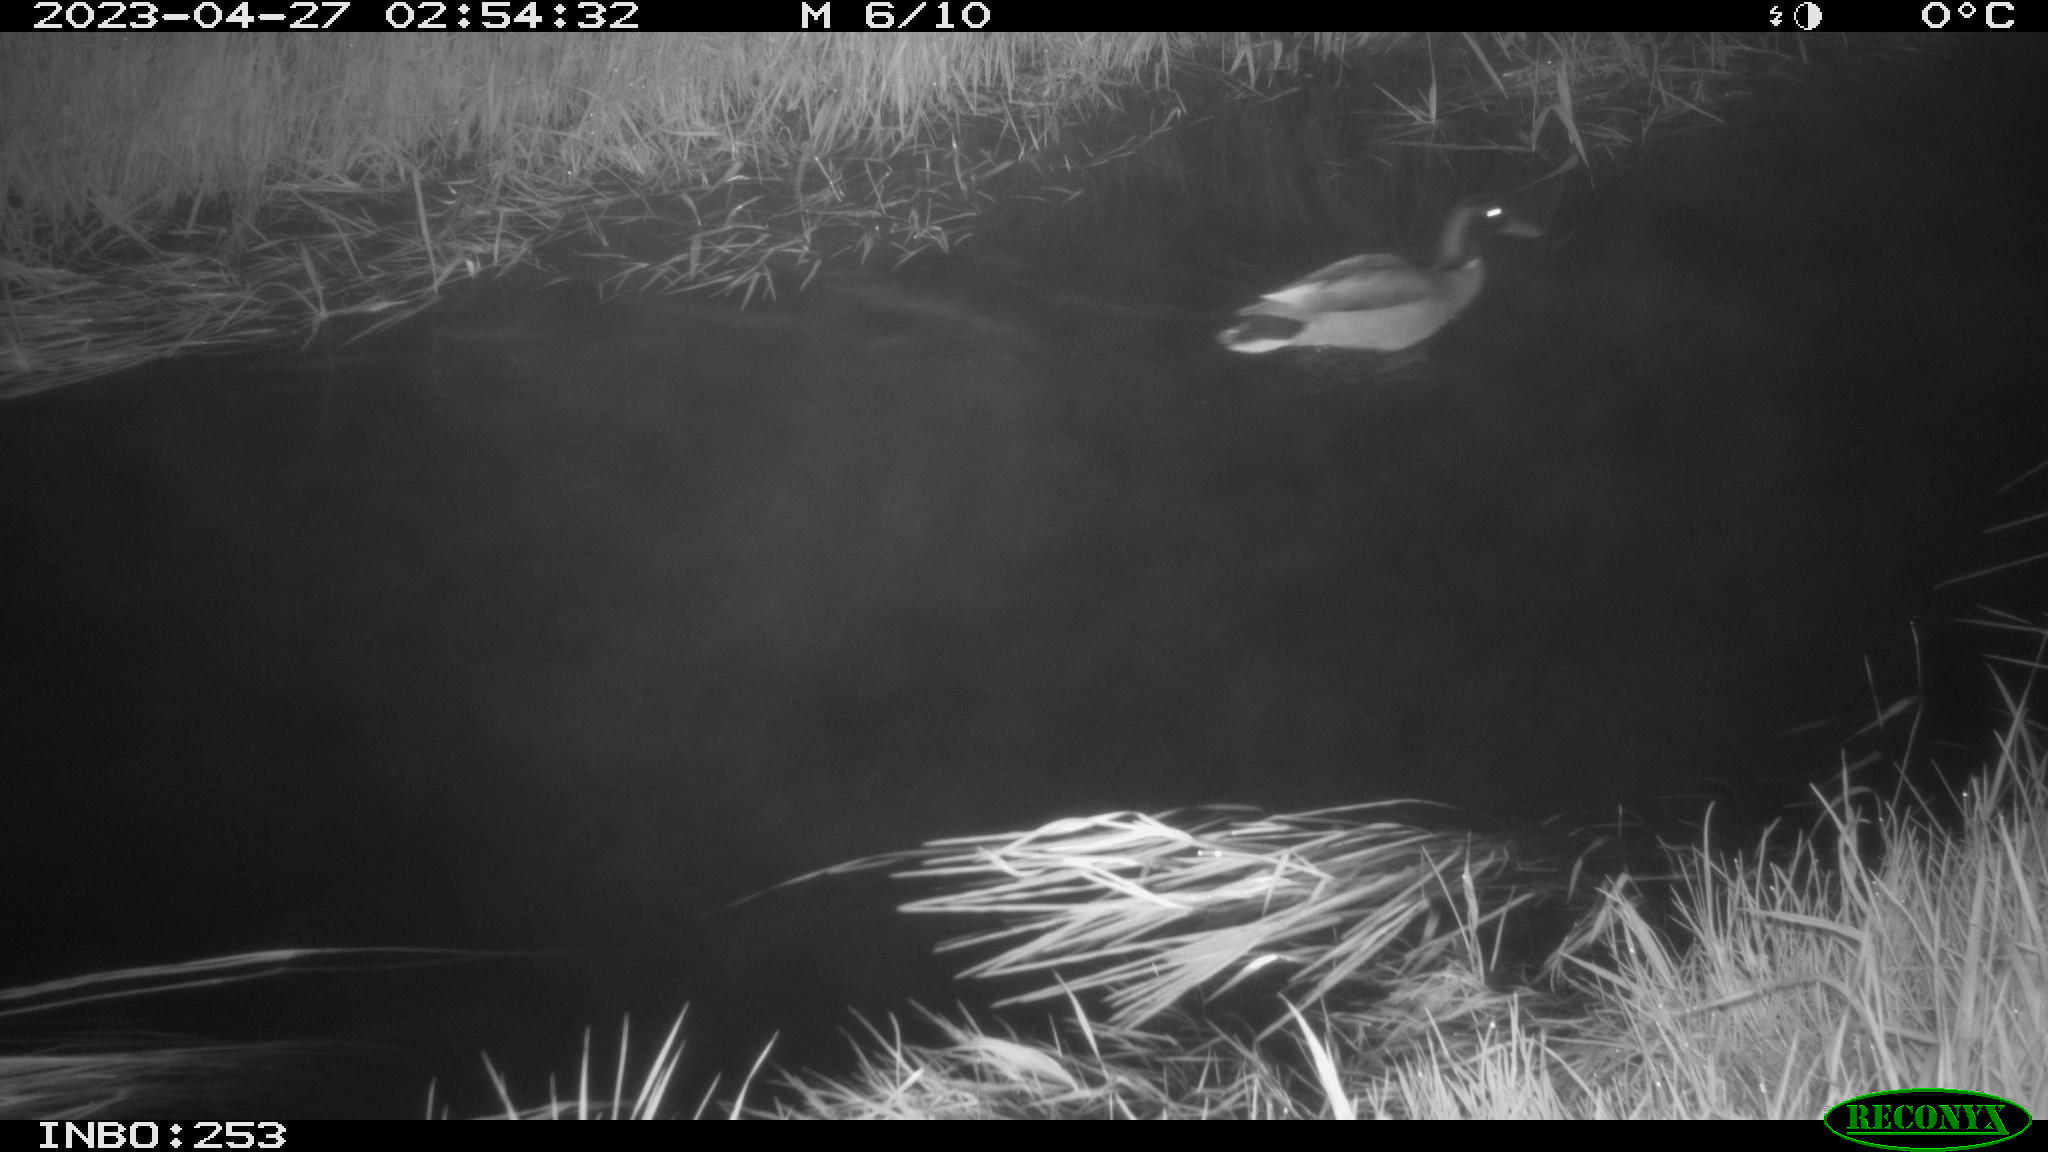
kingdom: Animalia
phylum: Chordata
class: Aves
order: Anseriformes
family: Anatidae
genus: Anas
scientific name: Anas
